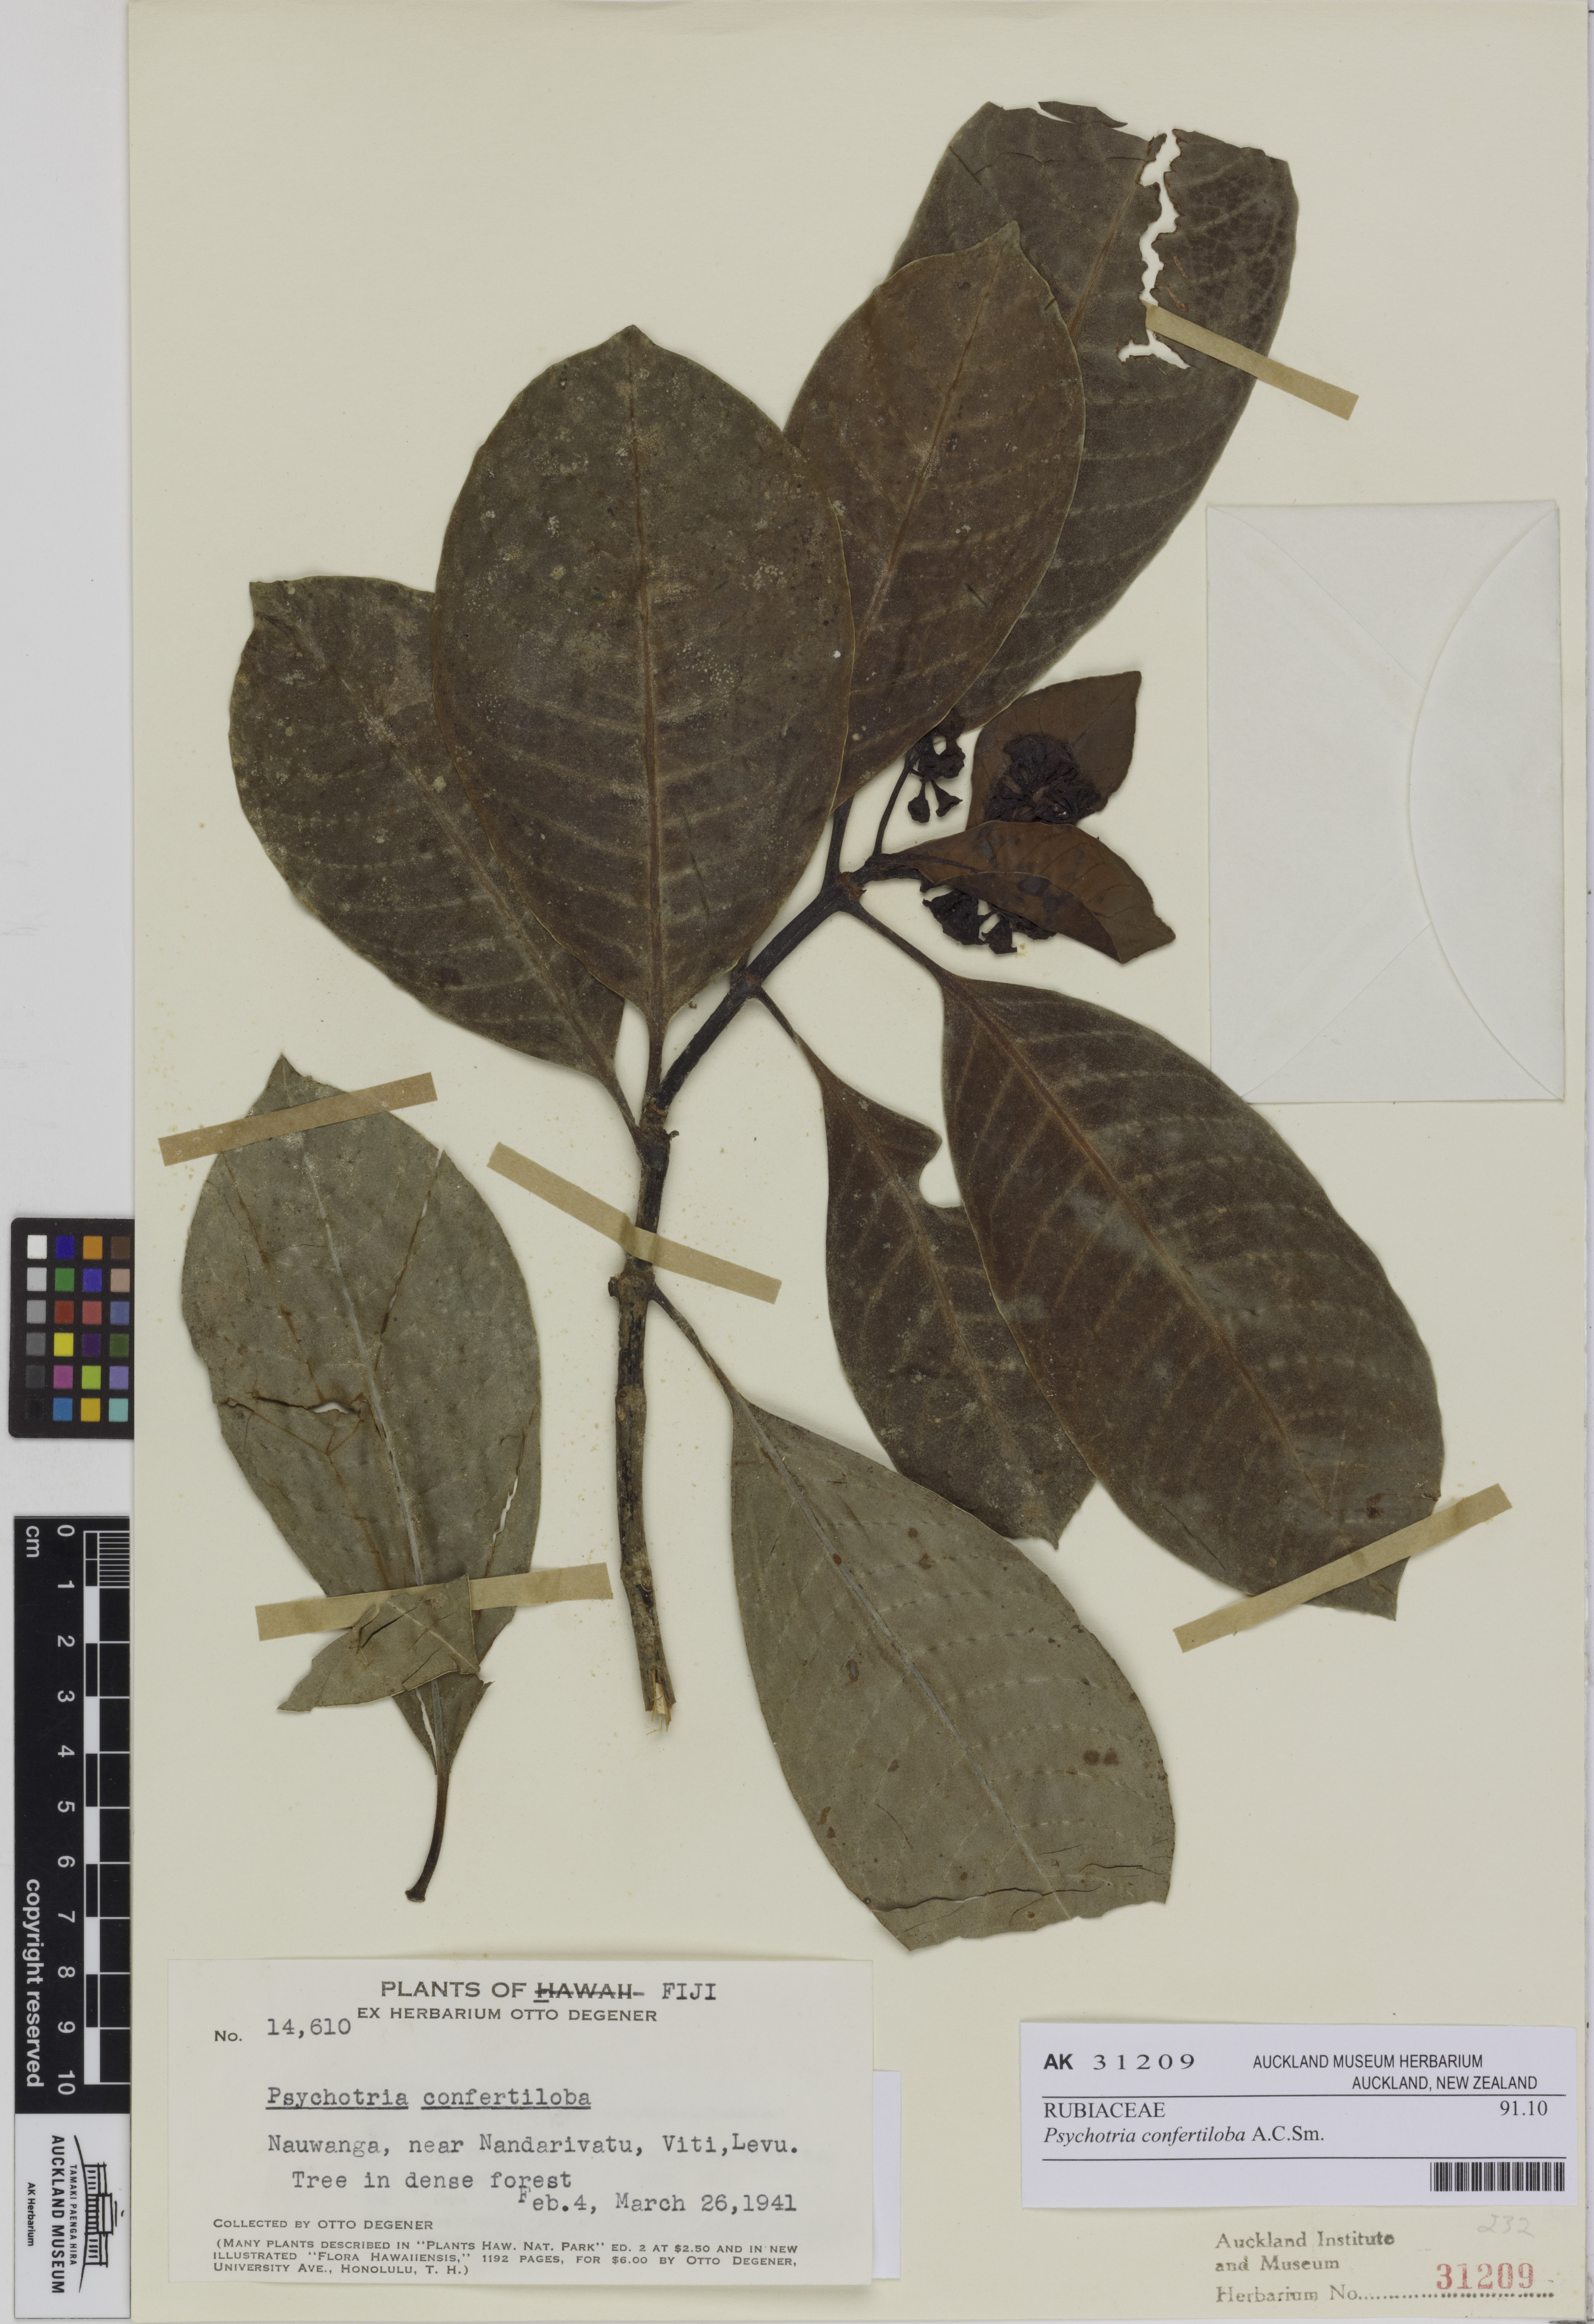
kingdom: Plantae
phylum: Tracheophyta
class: Magnoliopsida
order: Gentianales
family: Rubiaceae
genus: Psychotria
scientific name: Psychotria confertiloba
